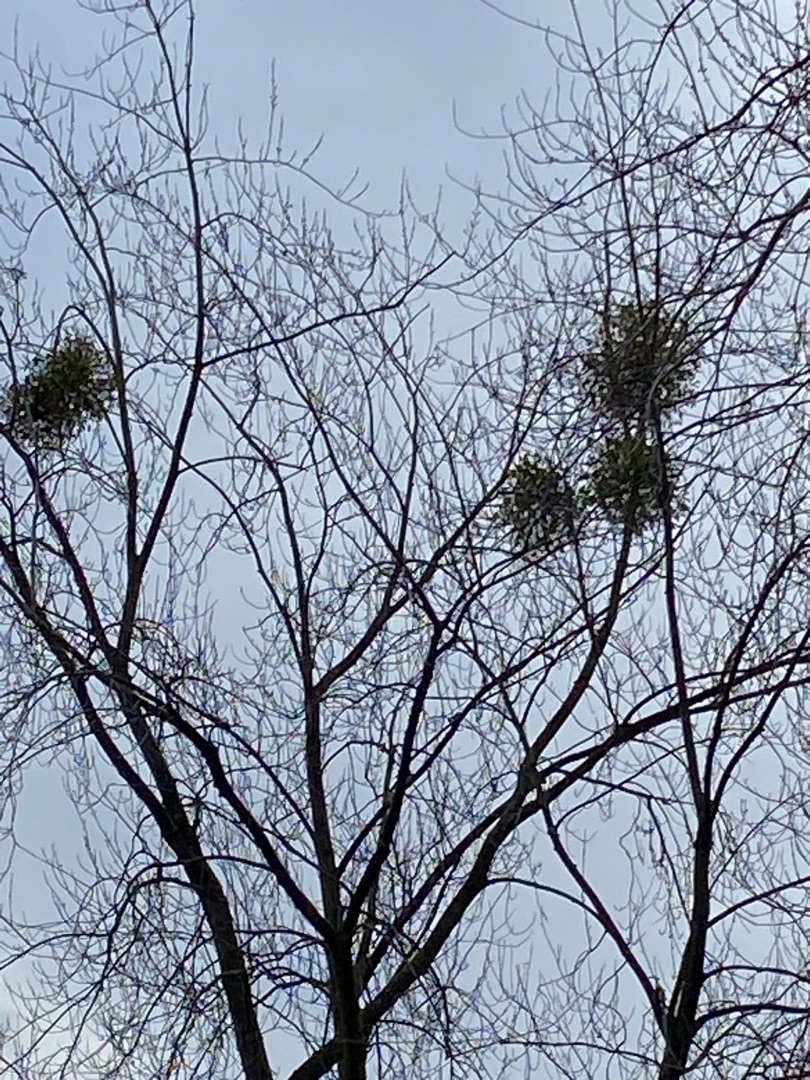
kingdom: Plantae
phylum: Tracheophyta
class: Magnoliopsida
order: Santalales
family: Viscaceae
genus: Viscum
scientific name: Viscum album
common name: Mistelten
